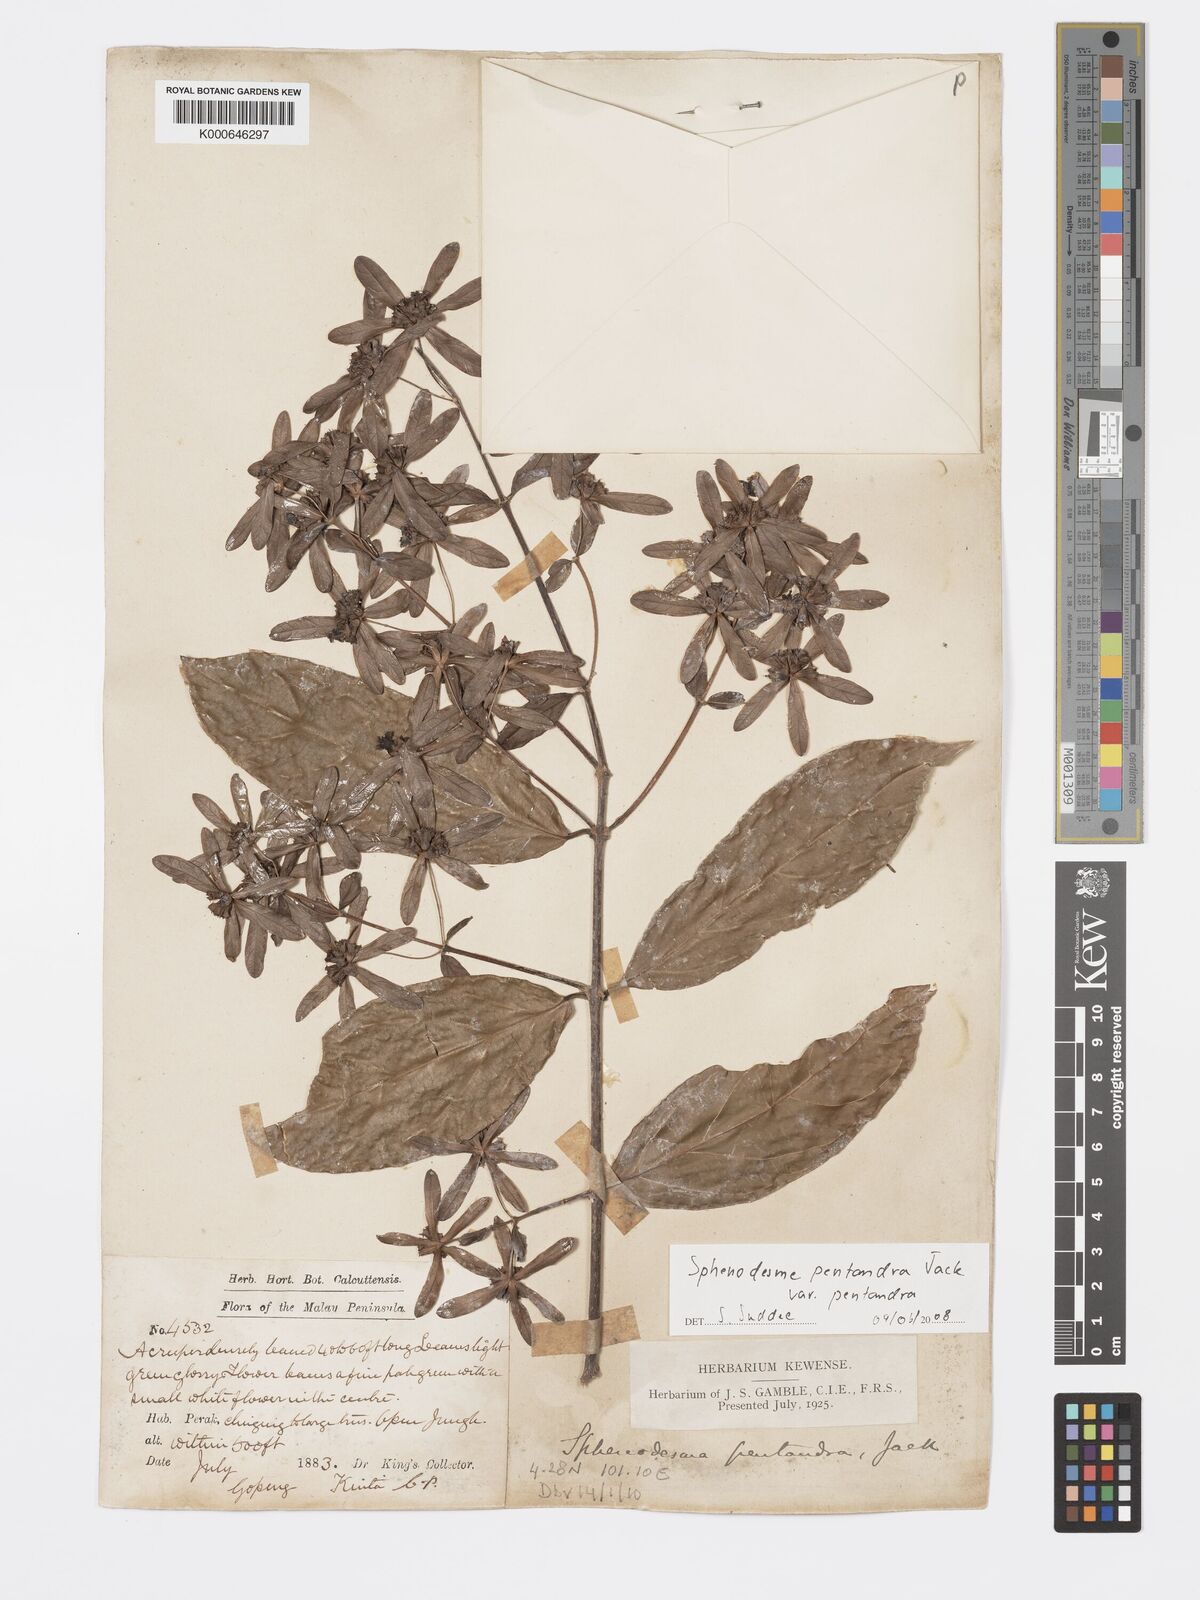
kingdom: Plantae
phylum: Tracheophyta
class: Magnoliopsida
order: Lamiales
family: Lamiaceae
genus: Sphenodesme
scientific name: Sphenodesme pentandra
